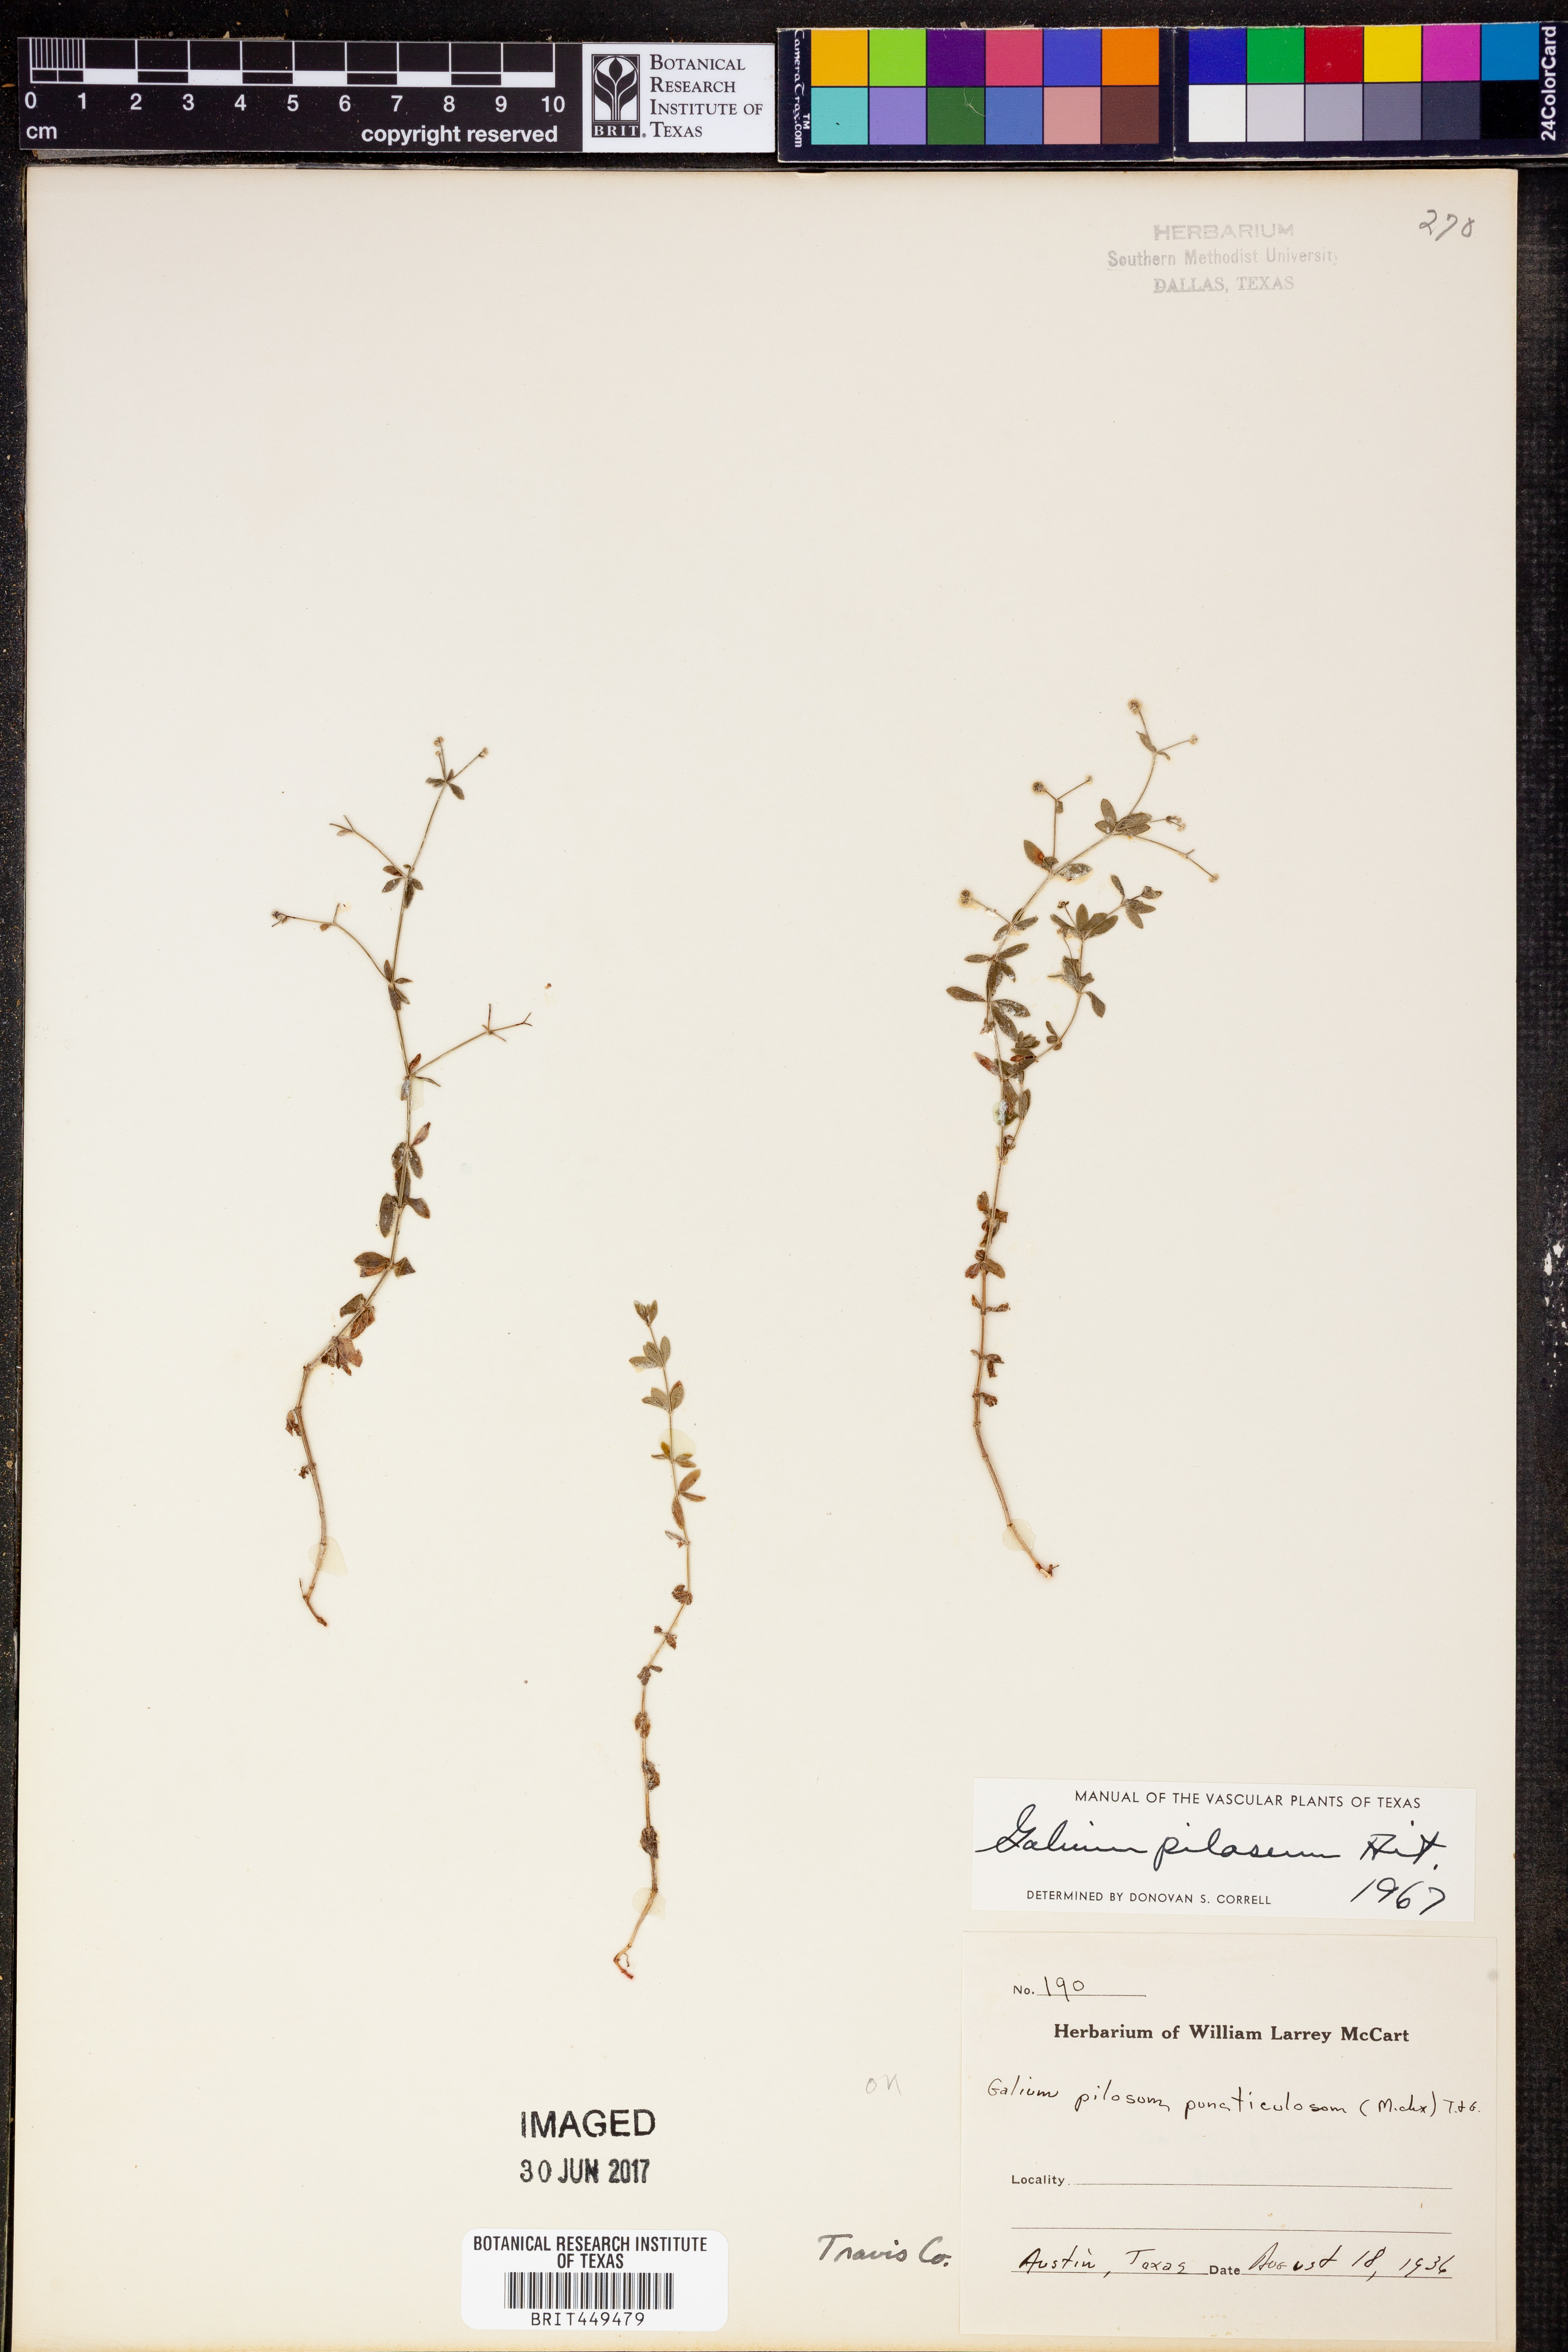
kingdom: Plantae
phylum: Tracheophyta
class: Magnoliopsida
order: Gentianales
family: Rubiaceae
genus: Galium
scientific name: Galium pilosum
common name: Hairy bedstraw
